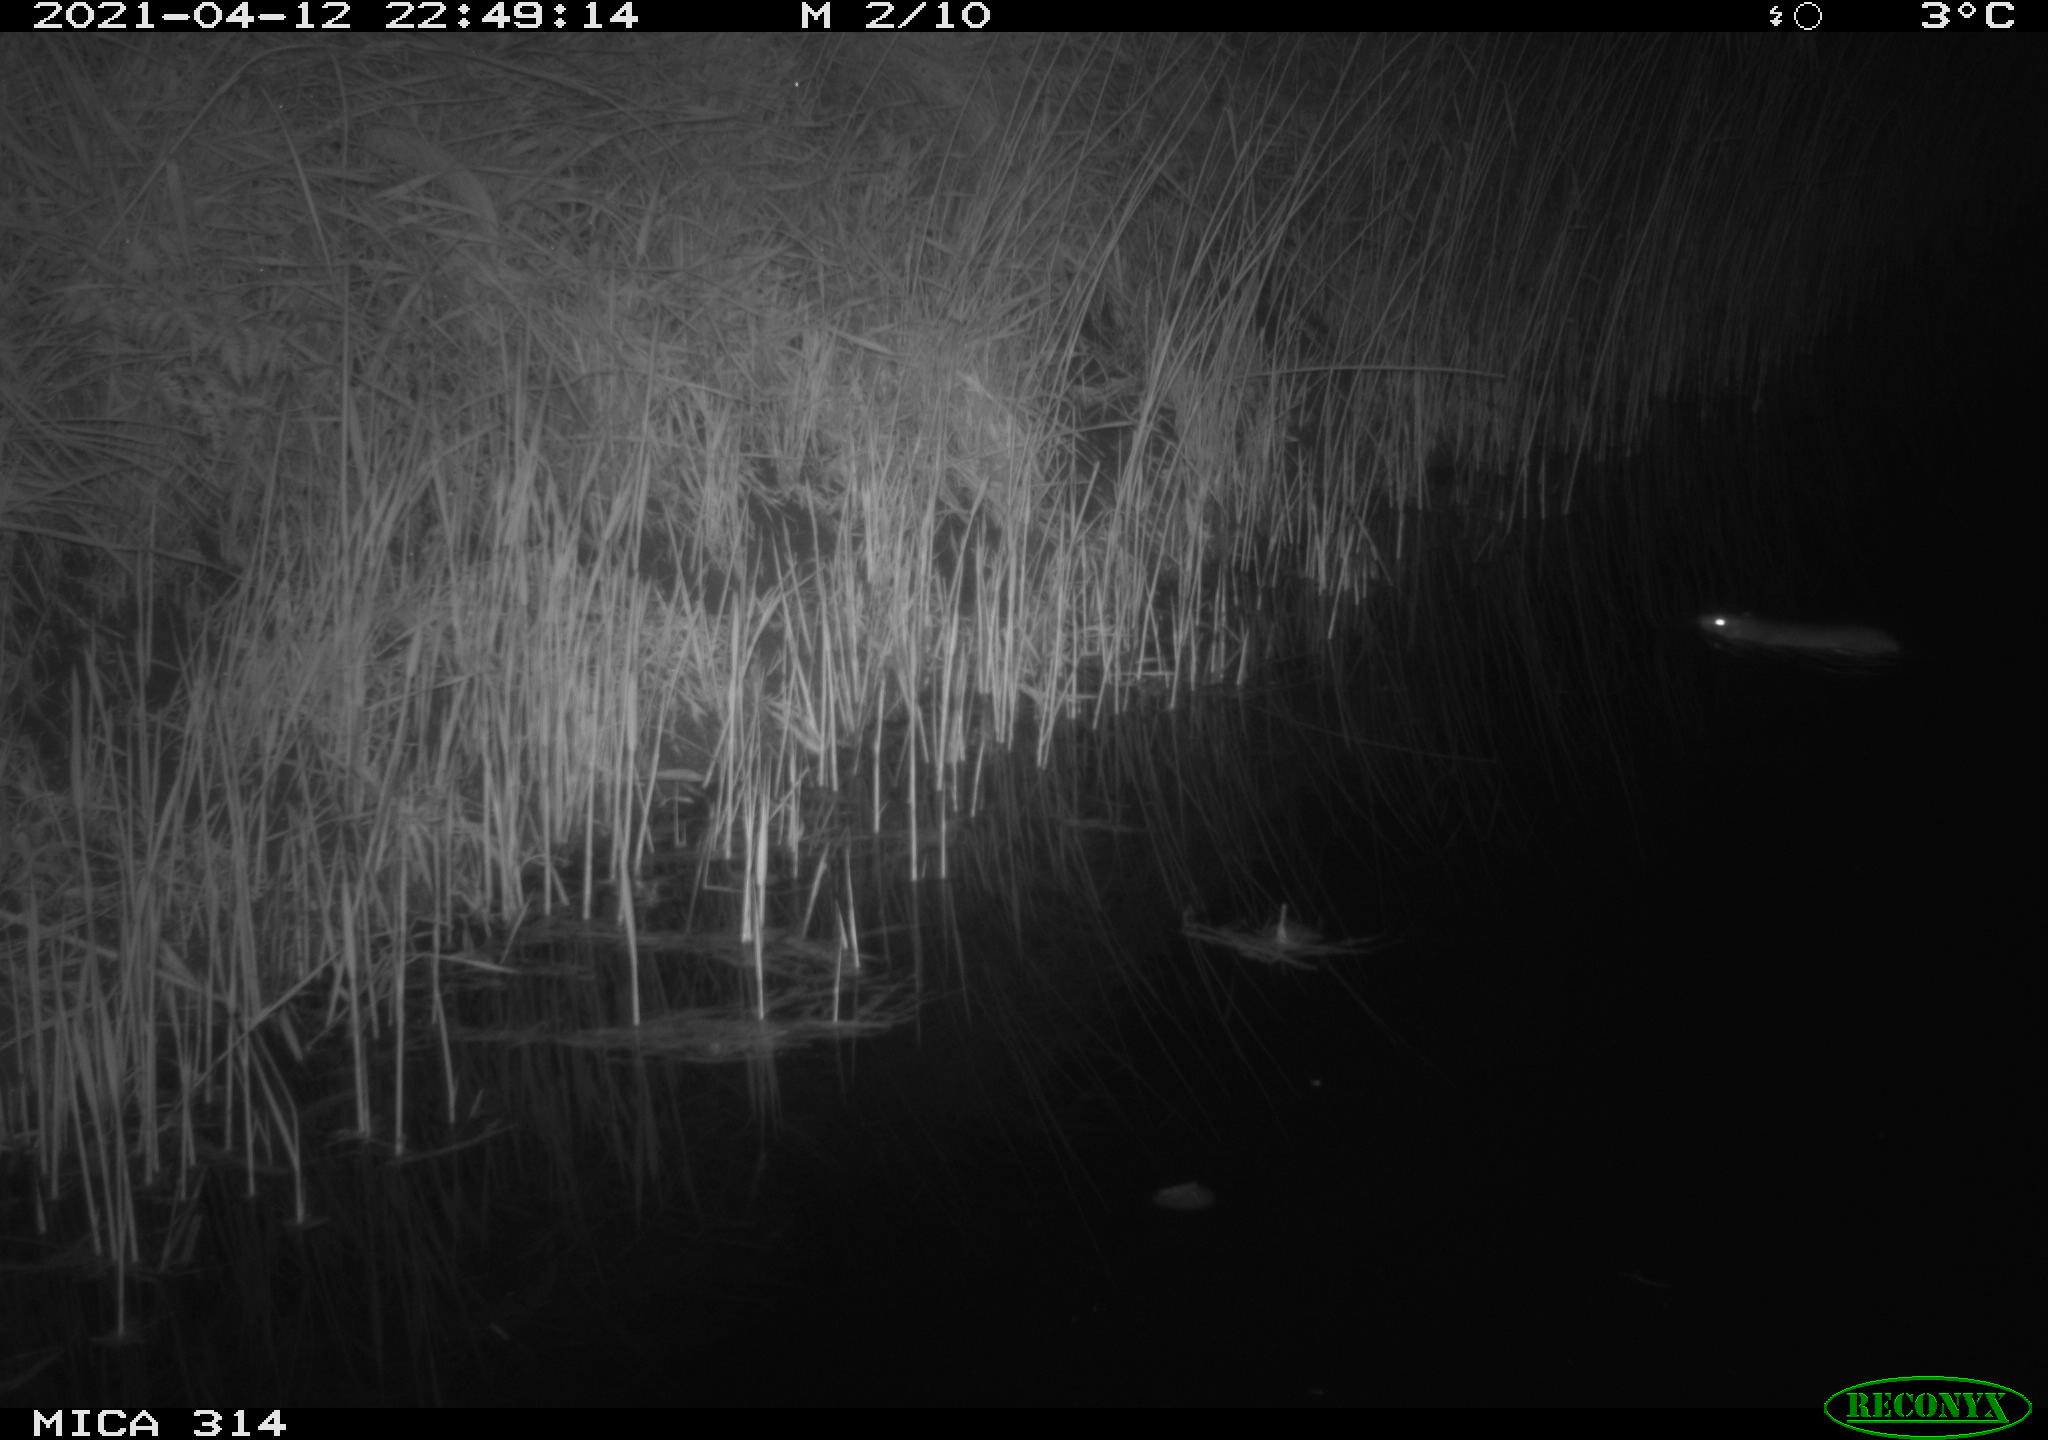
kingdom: Animalia
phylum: Chordata
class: Mammalia
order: Rodentia
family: Muridae
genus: Rattus
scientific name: Rattus norvegicus
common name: Brown rat
